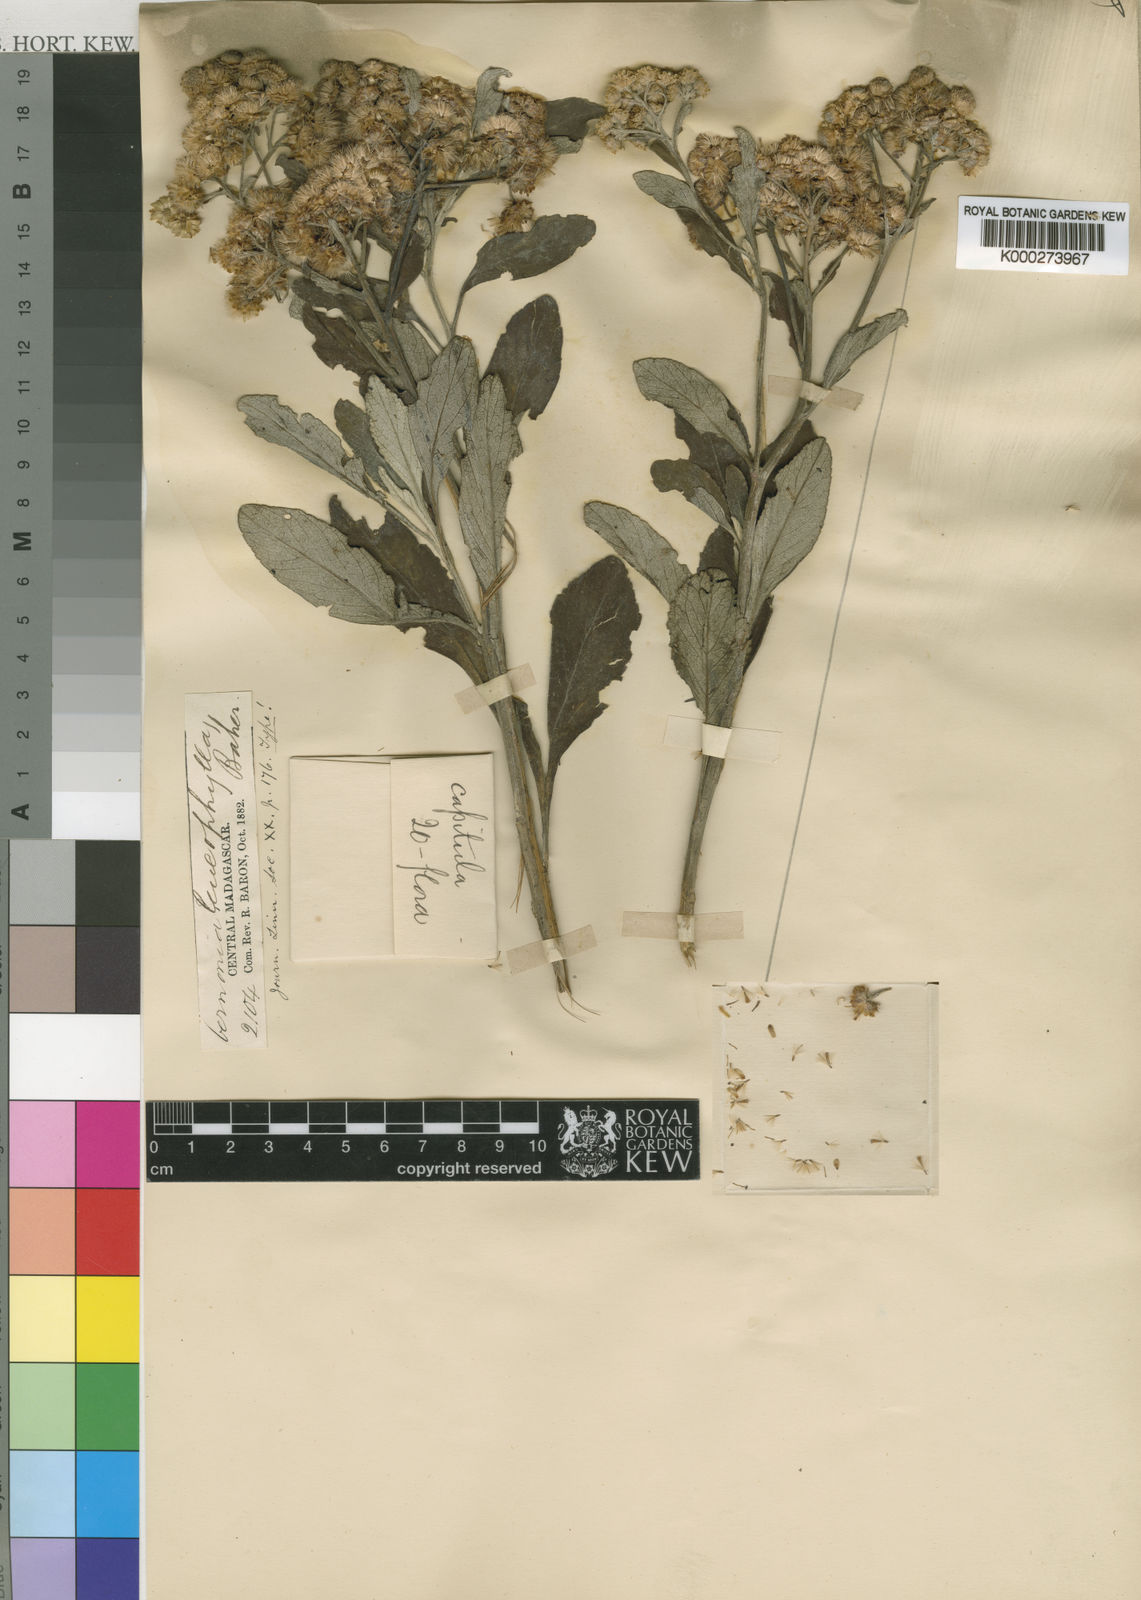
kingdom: Plantae
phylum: Tracheophyta
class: Magnoliopsida
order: Asterales
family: Asteraceae
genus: Psiadia
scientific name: Psiadia leucophylla
